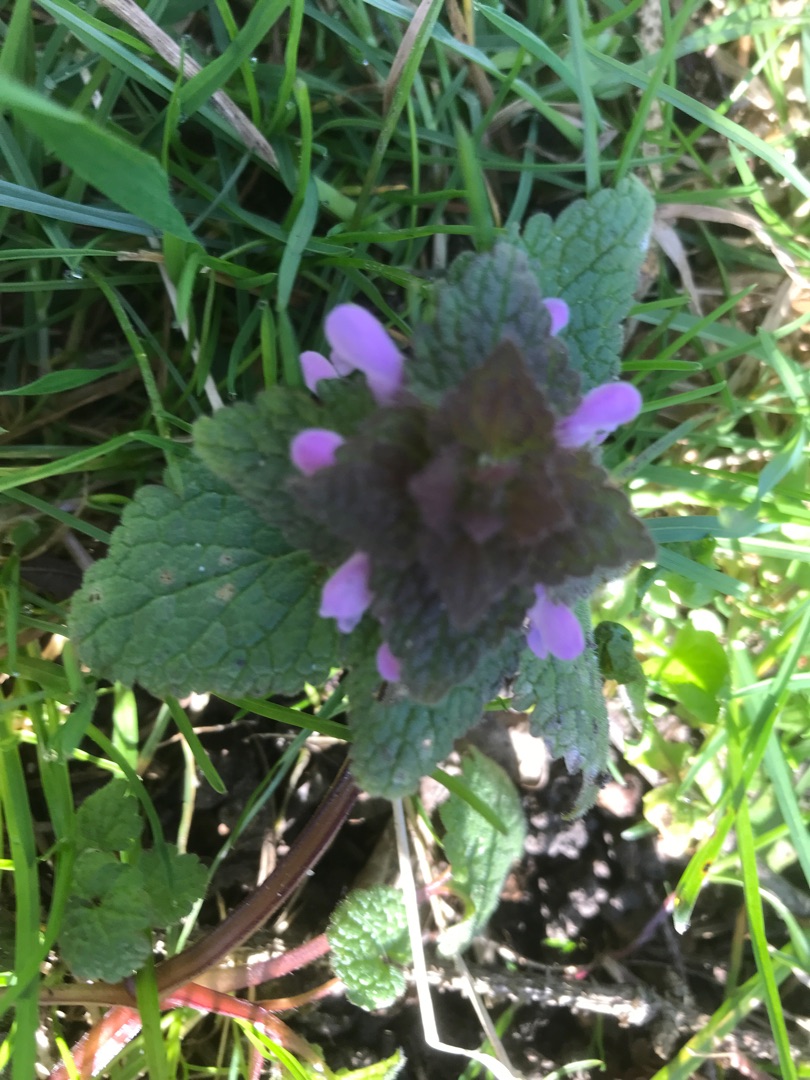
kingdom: Plantae
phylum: Tracheophyta
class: Magnoliopsida
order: Lamiales
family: Lamiaceae
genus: Lamium
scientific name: Lamium purpureum
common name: Rød tvetand
